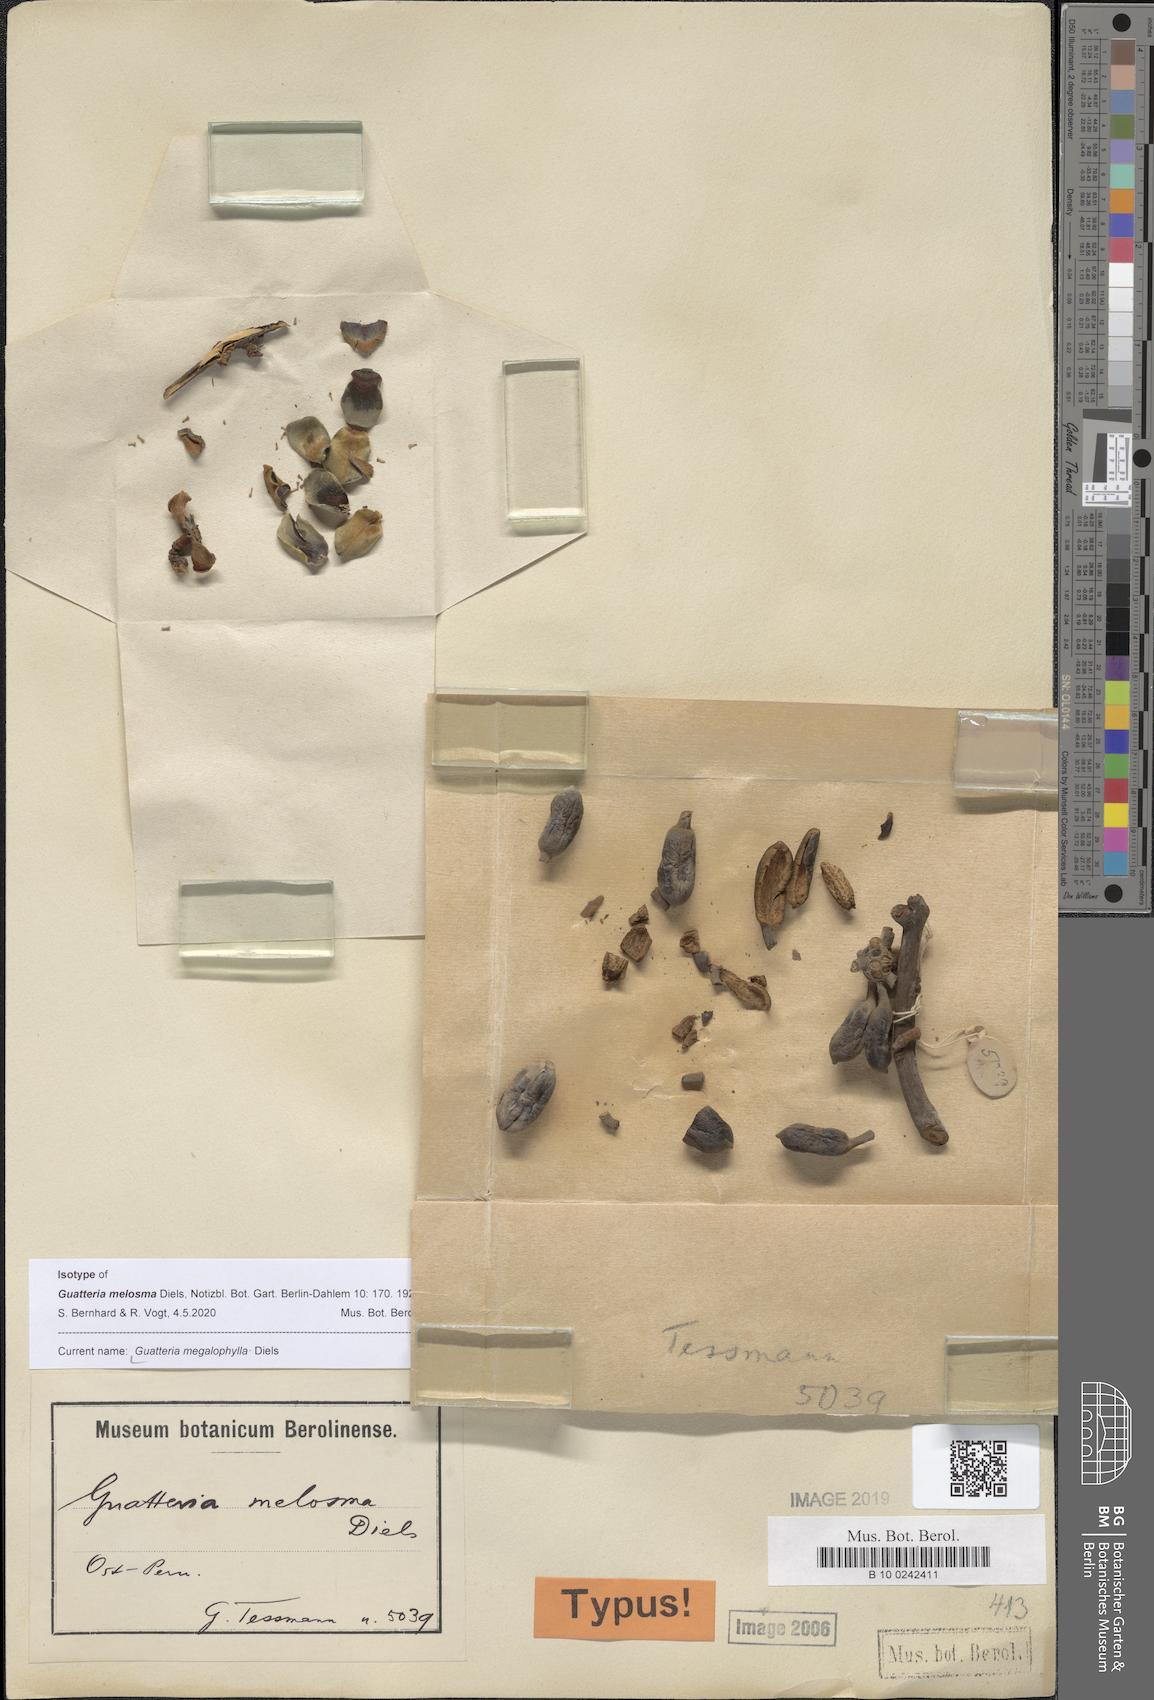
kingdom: Plantae
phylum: Tracheophyta
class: Magnoliopsida
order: Magnoliales
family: Annonaceae
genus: Guatteria
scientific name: Guatteria megalophylla
